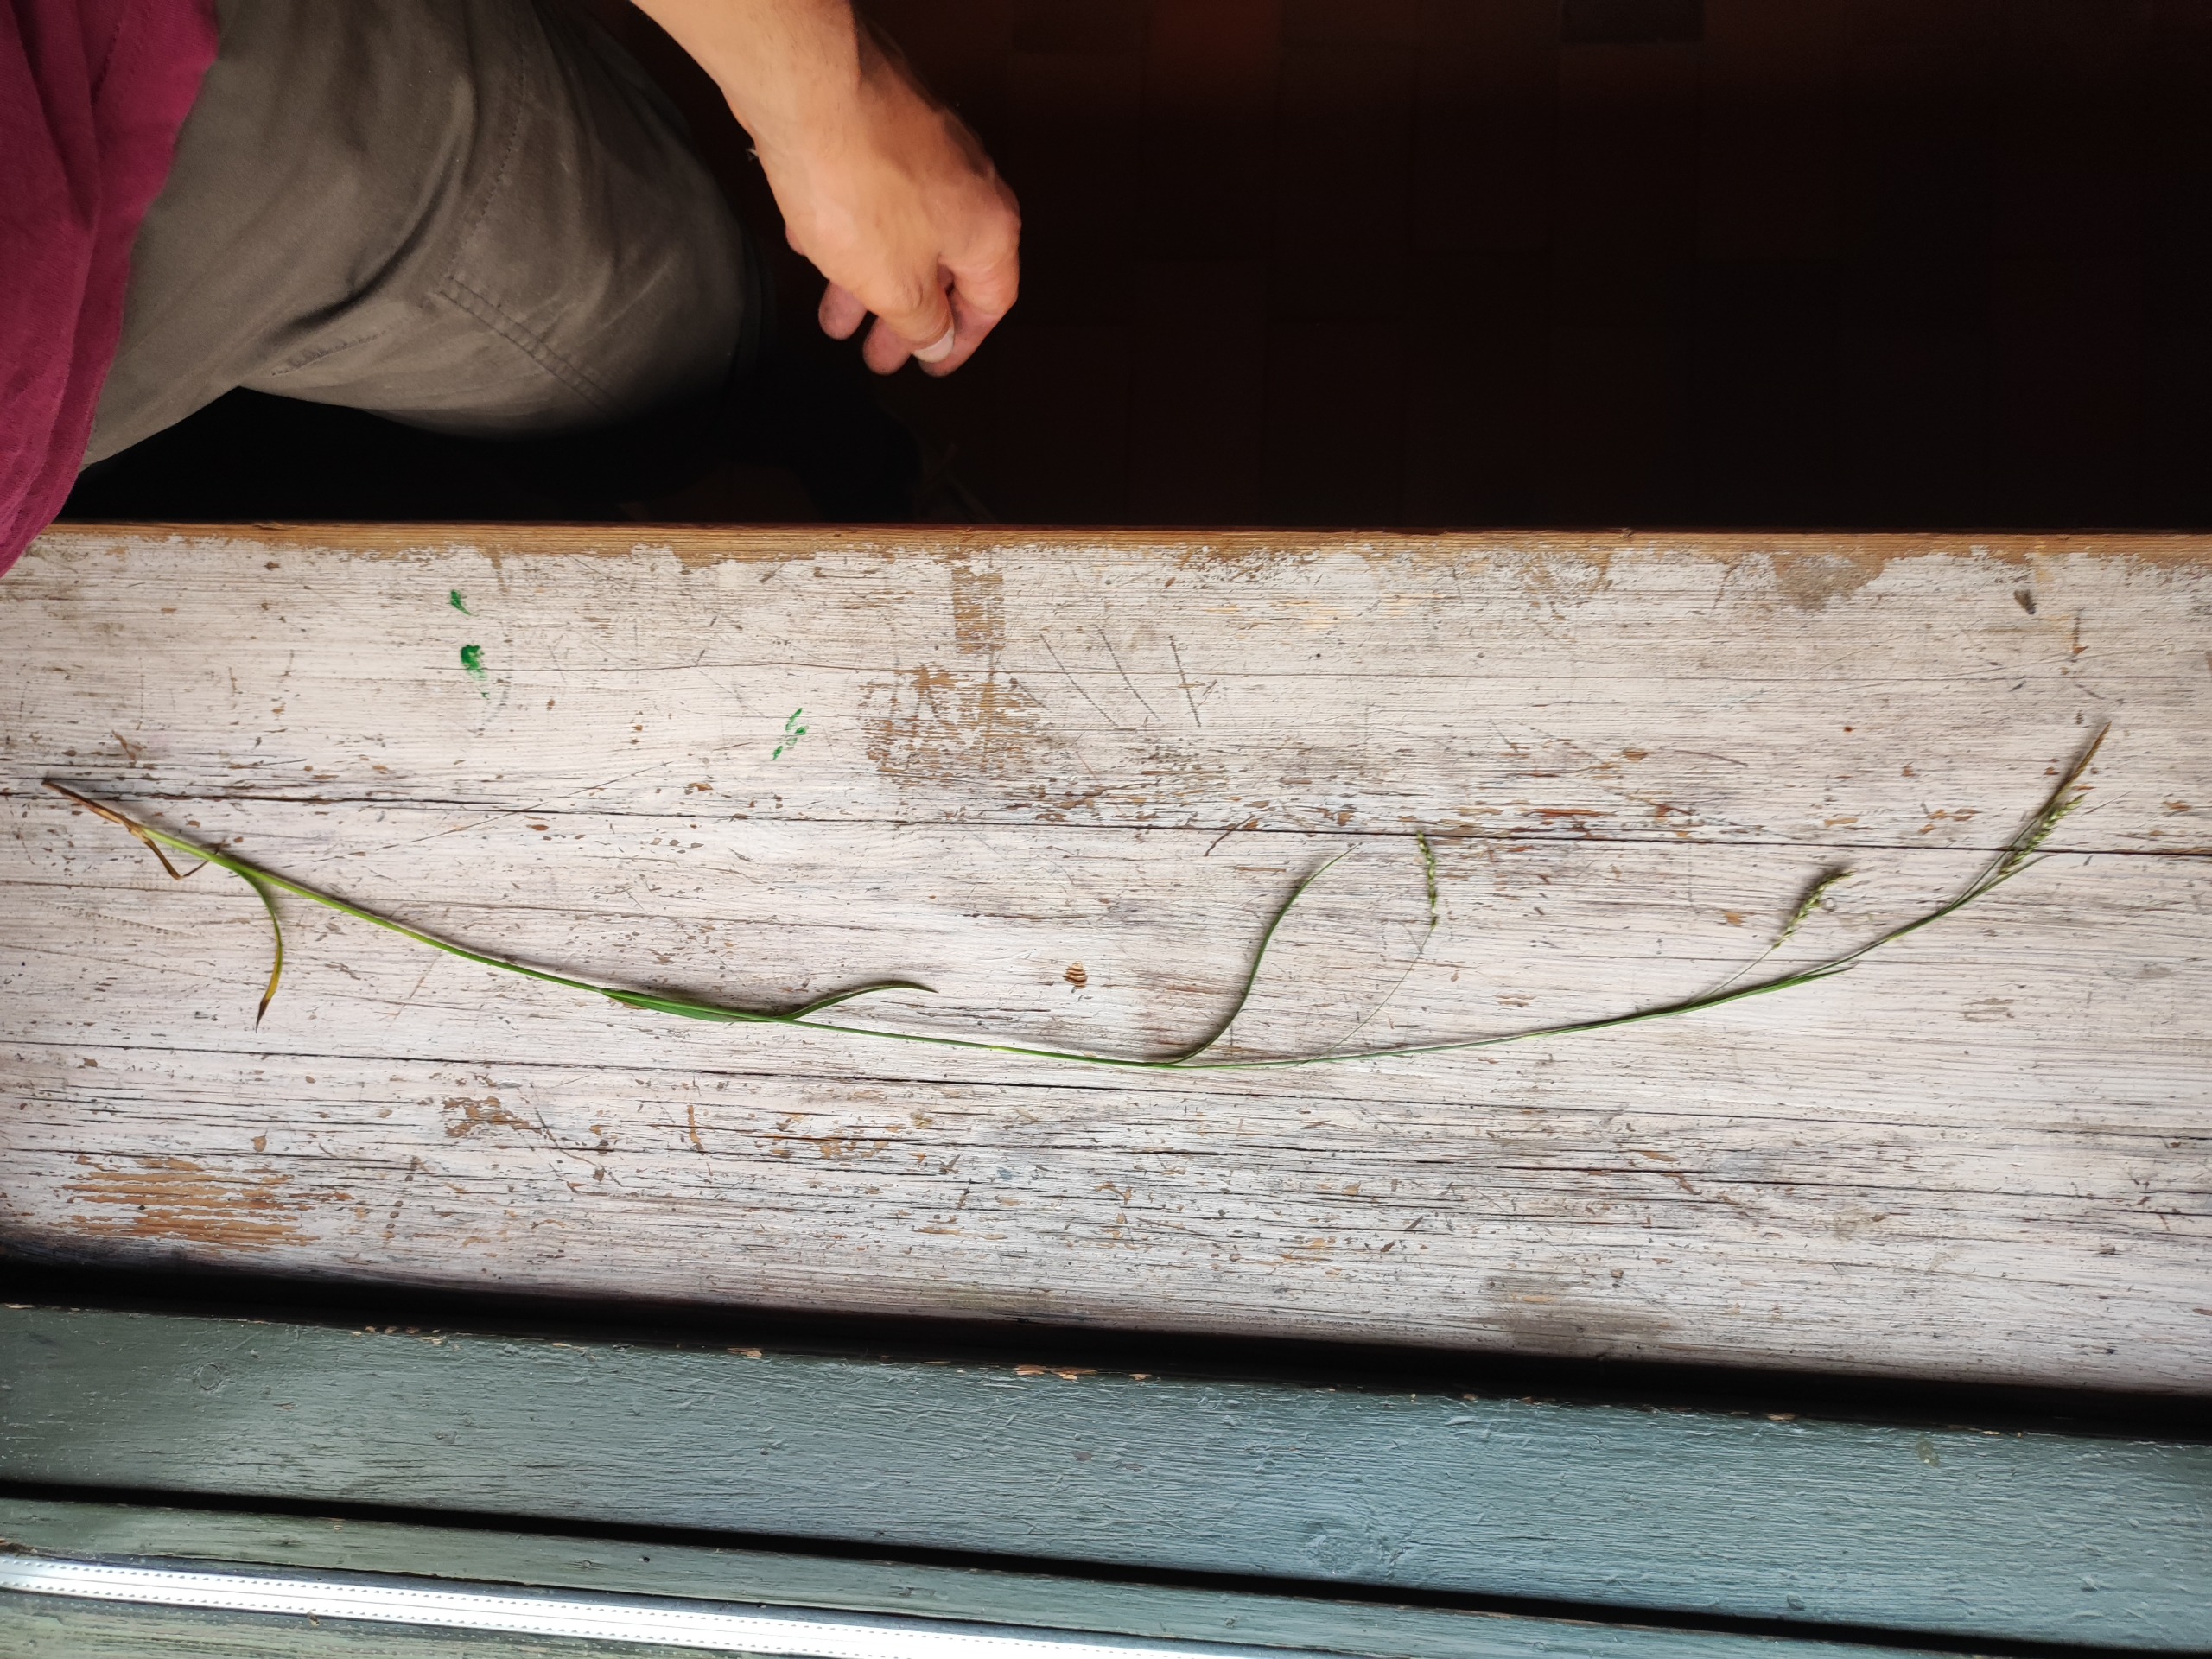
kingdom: Plantae
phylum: Tracheophyta
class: Liliopsida
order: Poales
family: Cyperaceae
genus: Carex
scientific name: Carex sylvatica
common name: Skov-star
